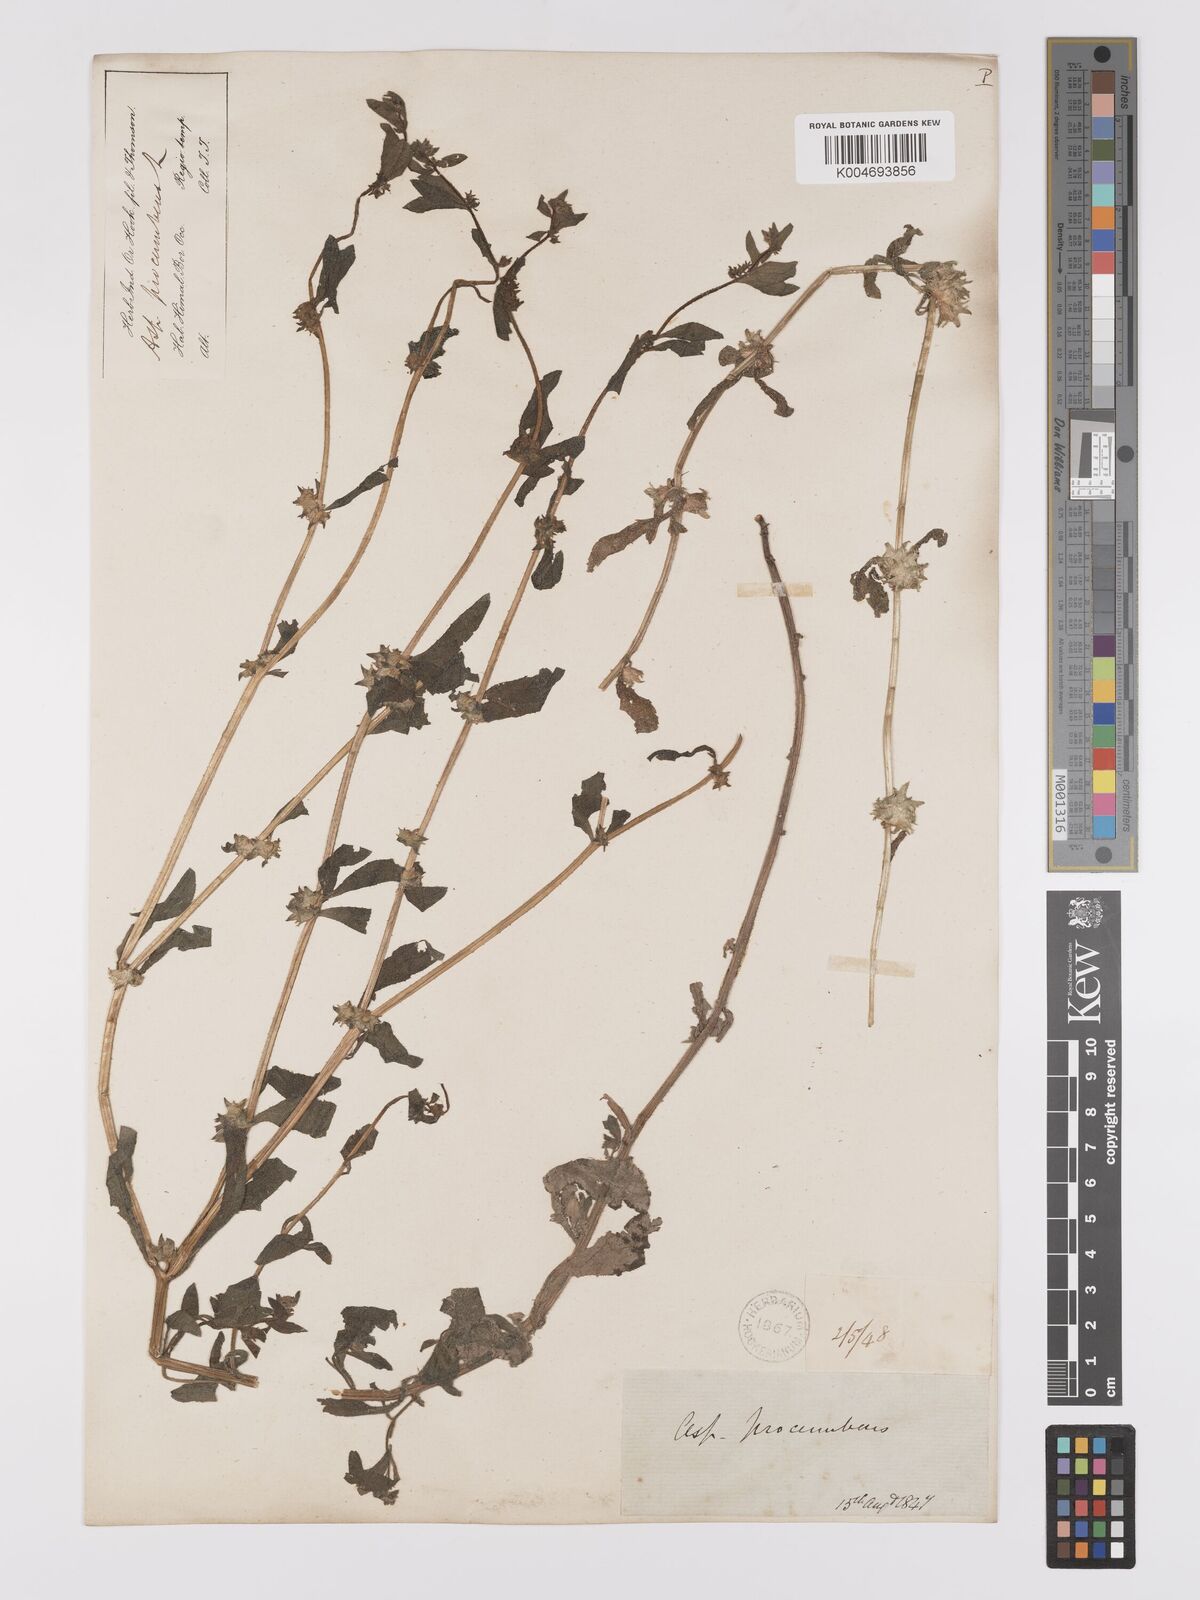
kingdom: Plantae
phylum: Tracheophyta
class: Magnoliopsida
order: Boraginales
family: Boraginaceae
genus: Asperugo
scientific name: Asperugo procumbens
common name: Madwort
